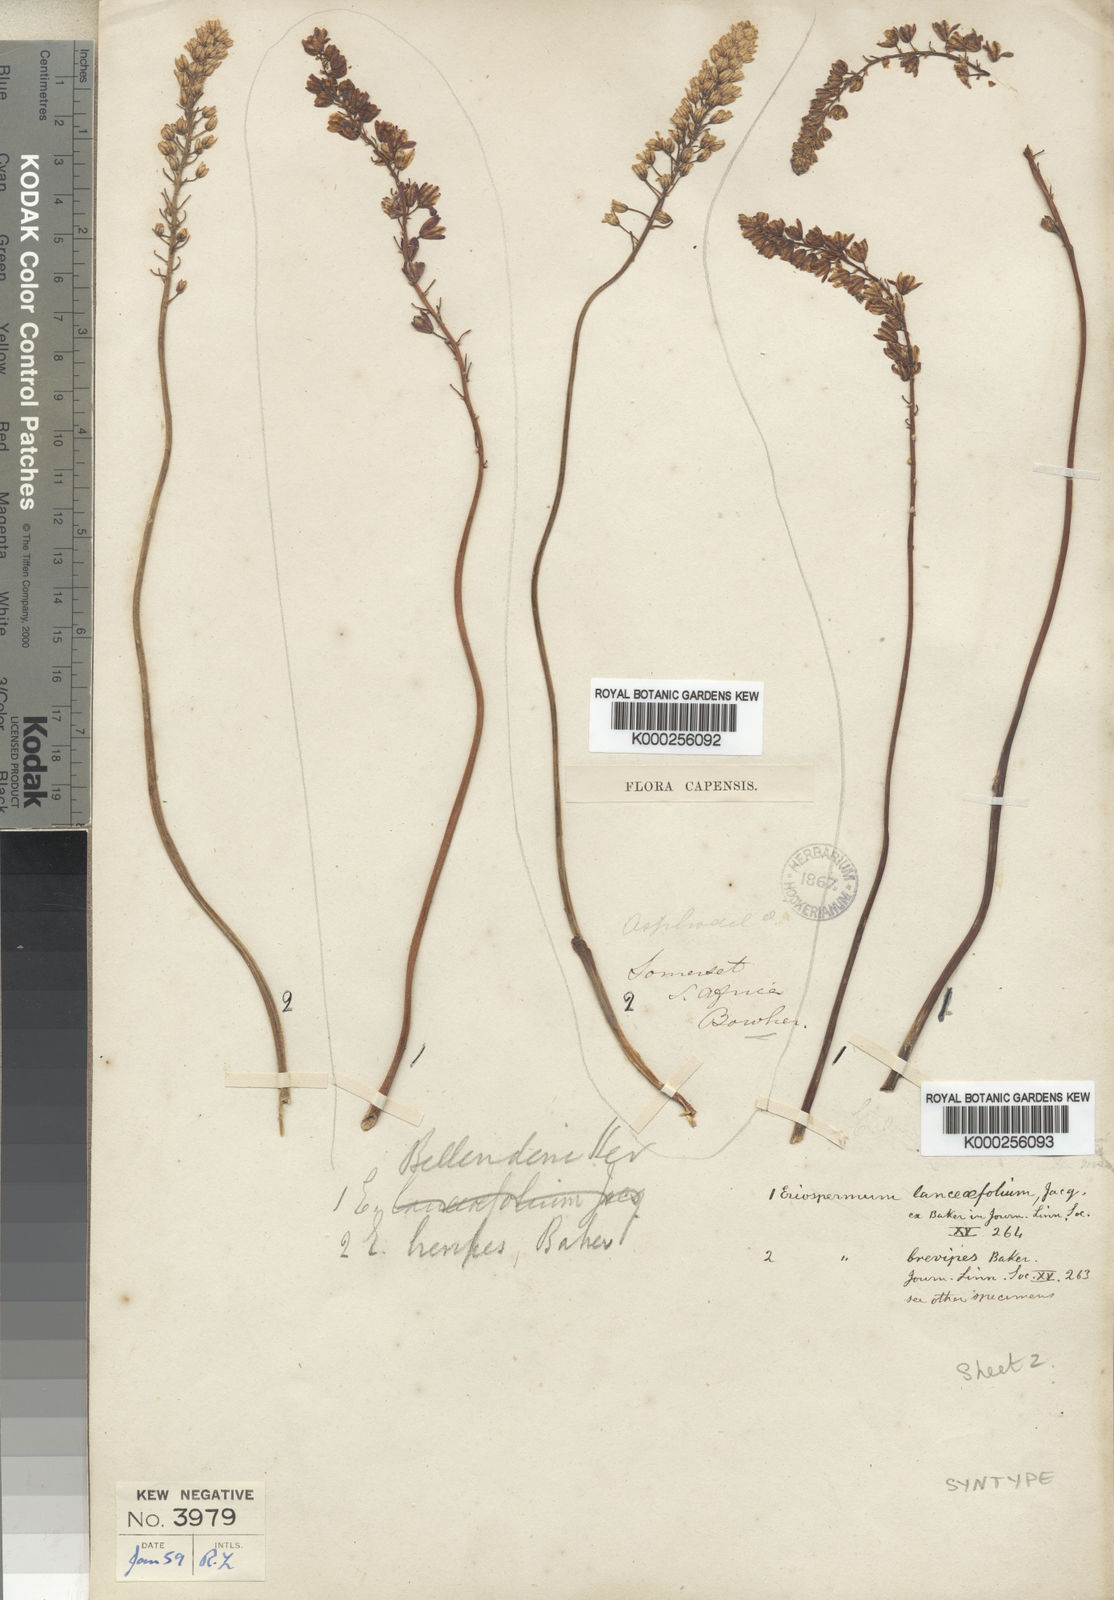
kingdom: Plantae
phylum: Tracheophyta
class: Liliopsida
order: Asparagales
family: Asparagaceae
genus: Eriospermum
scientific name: Eriospermum brevipes
